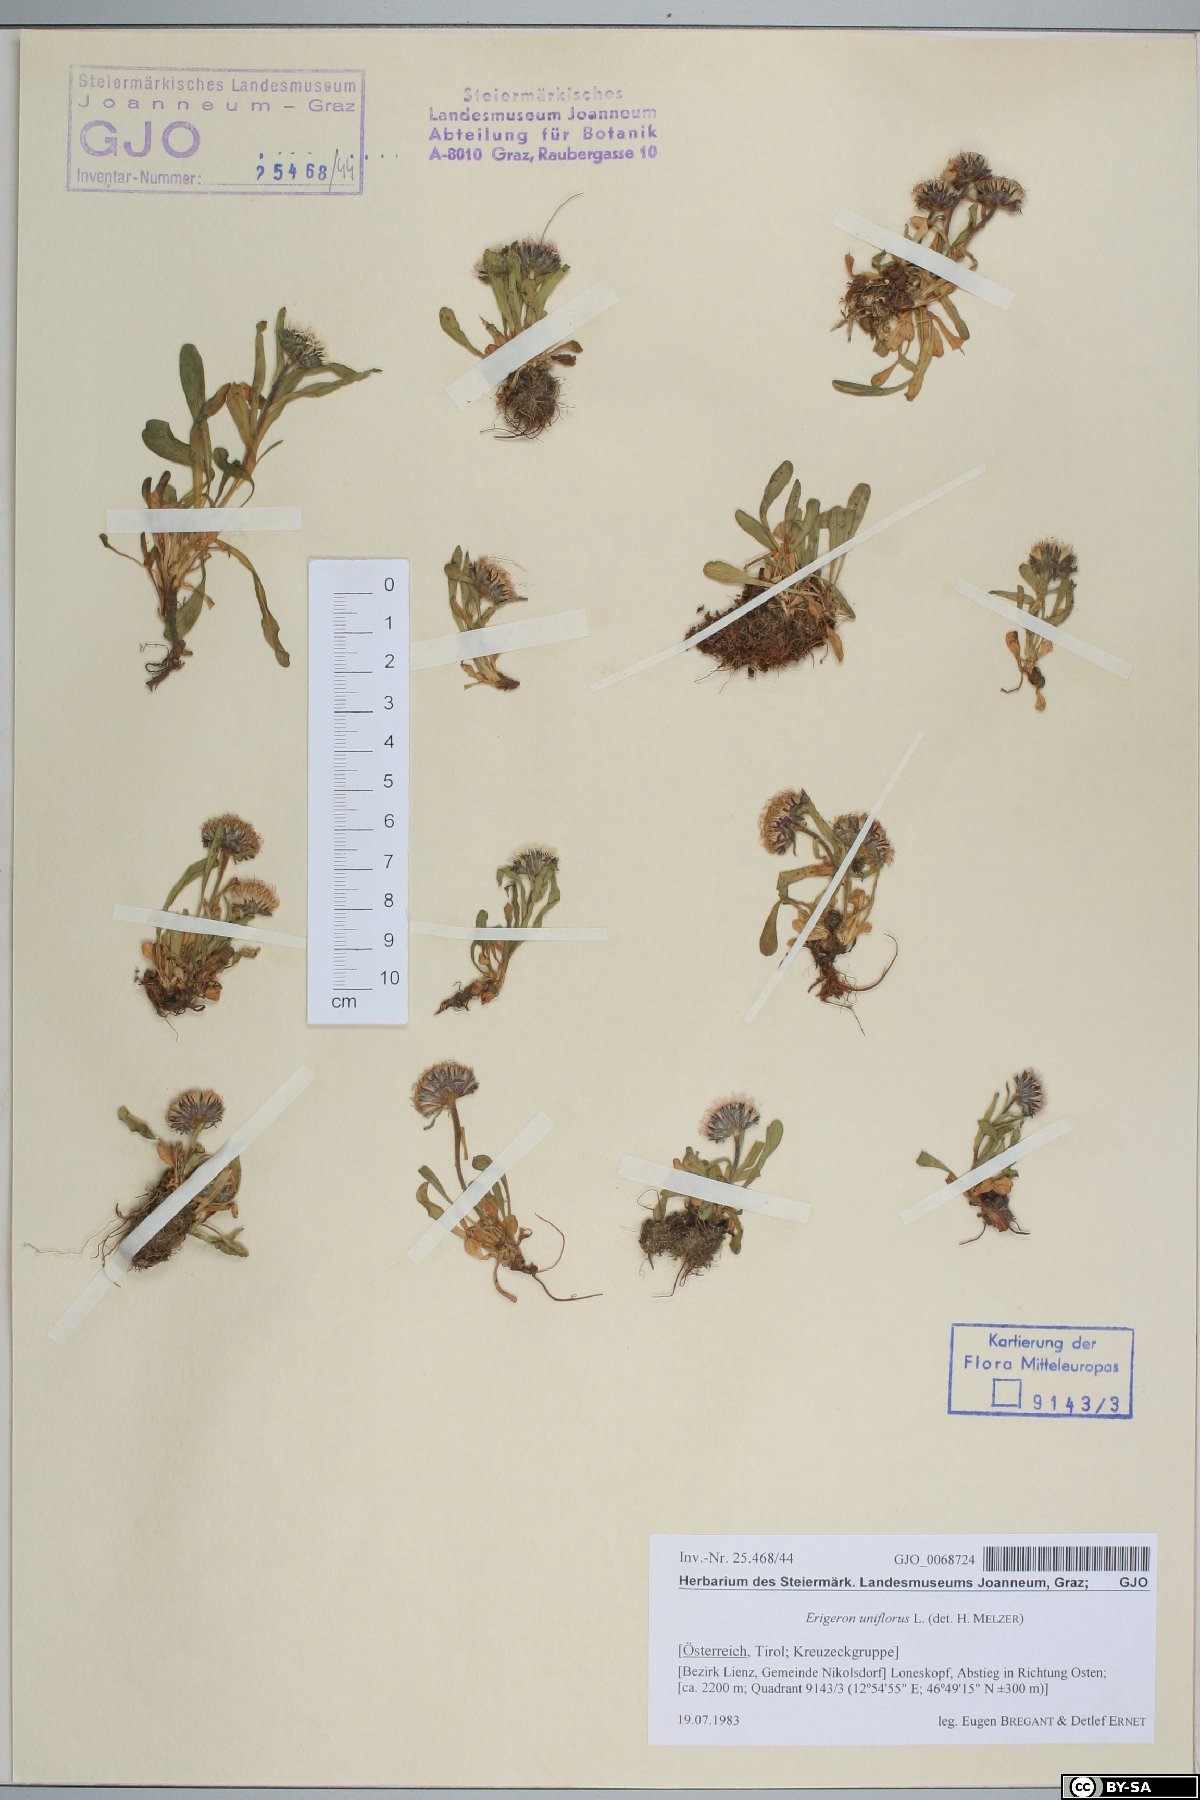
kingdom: Plantae
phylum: Tracheophyta
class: Magnoliopsida
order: Asterales
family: Asteraceae
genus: Erigeron
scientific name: Erigeron uniflorus
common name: Northern daisy
